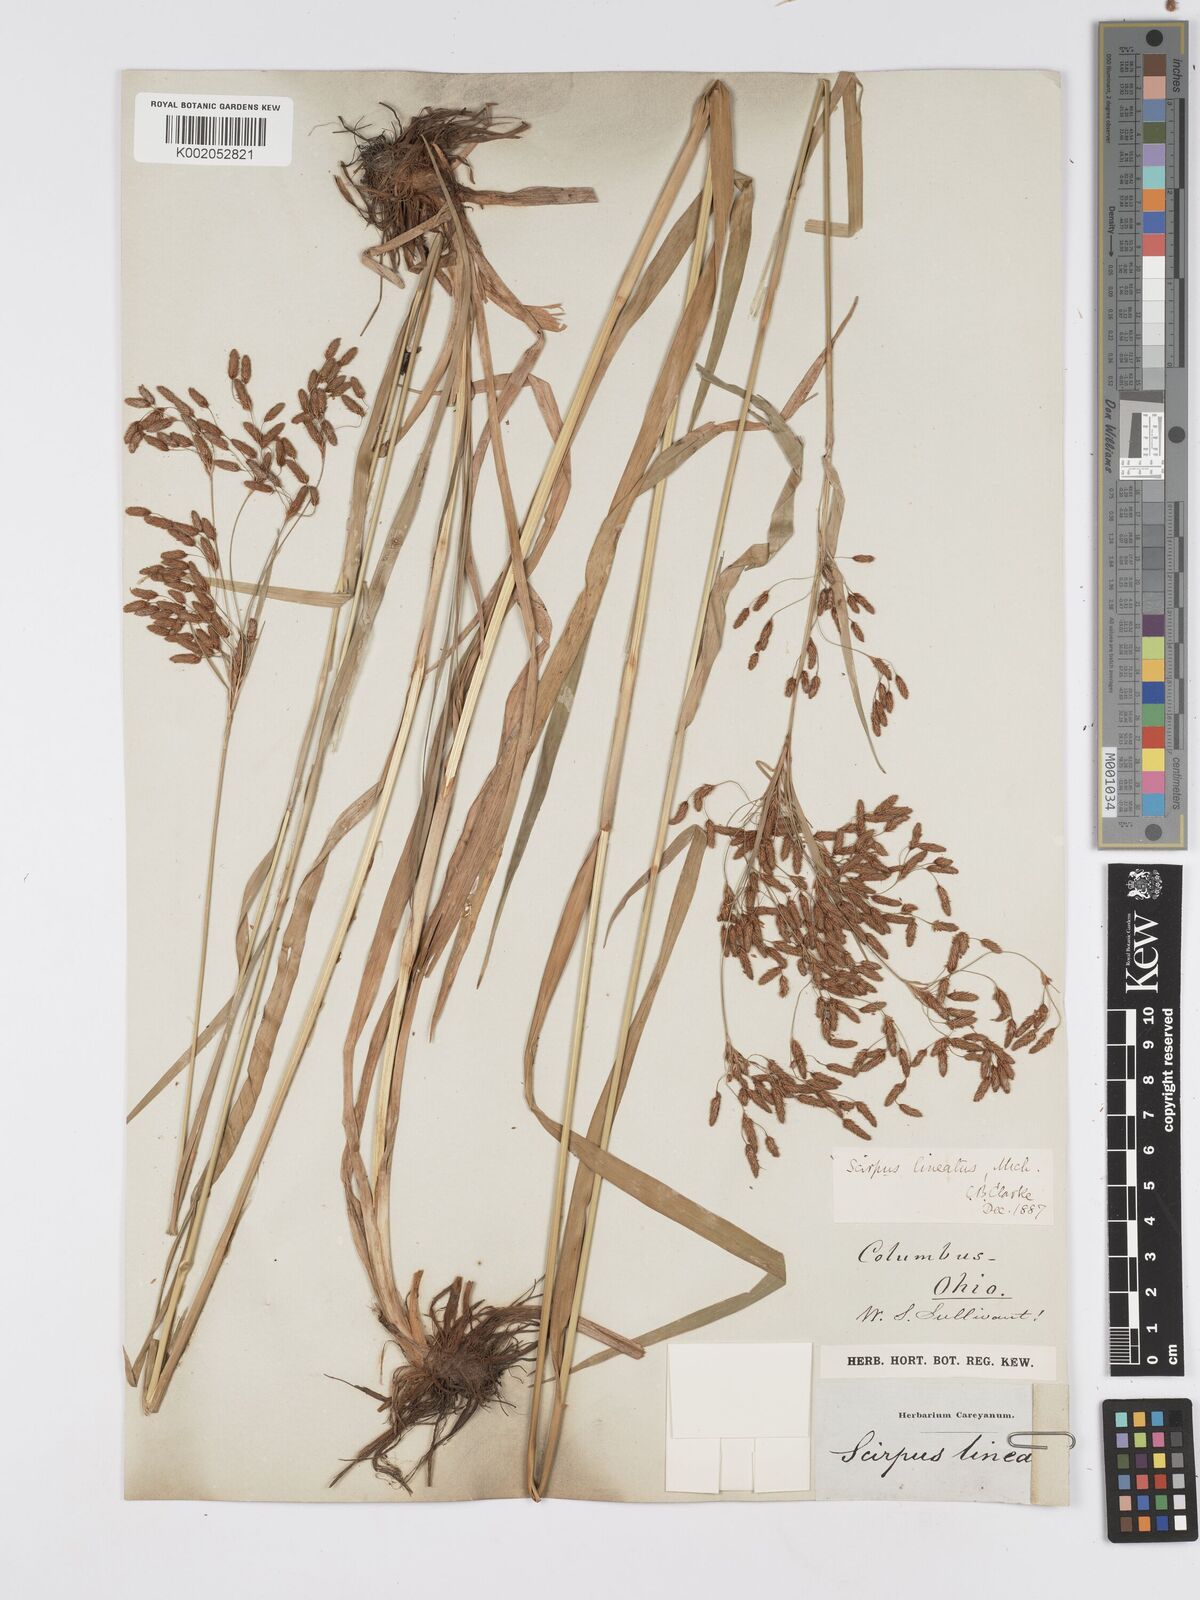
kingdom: Plantae
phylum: Tracheophyta
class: Liliopsida
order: Poales
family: Cyperaceae
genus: Scirpus
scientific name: Scirpus lineatus
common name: Drooping bulrush
